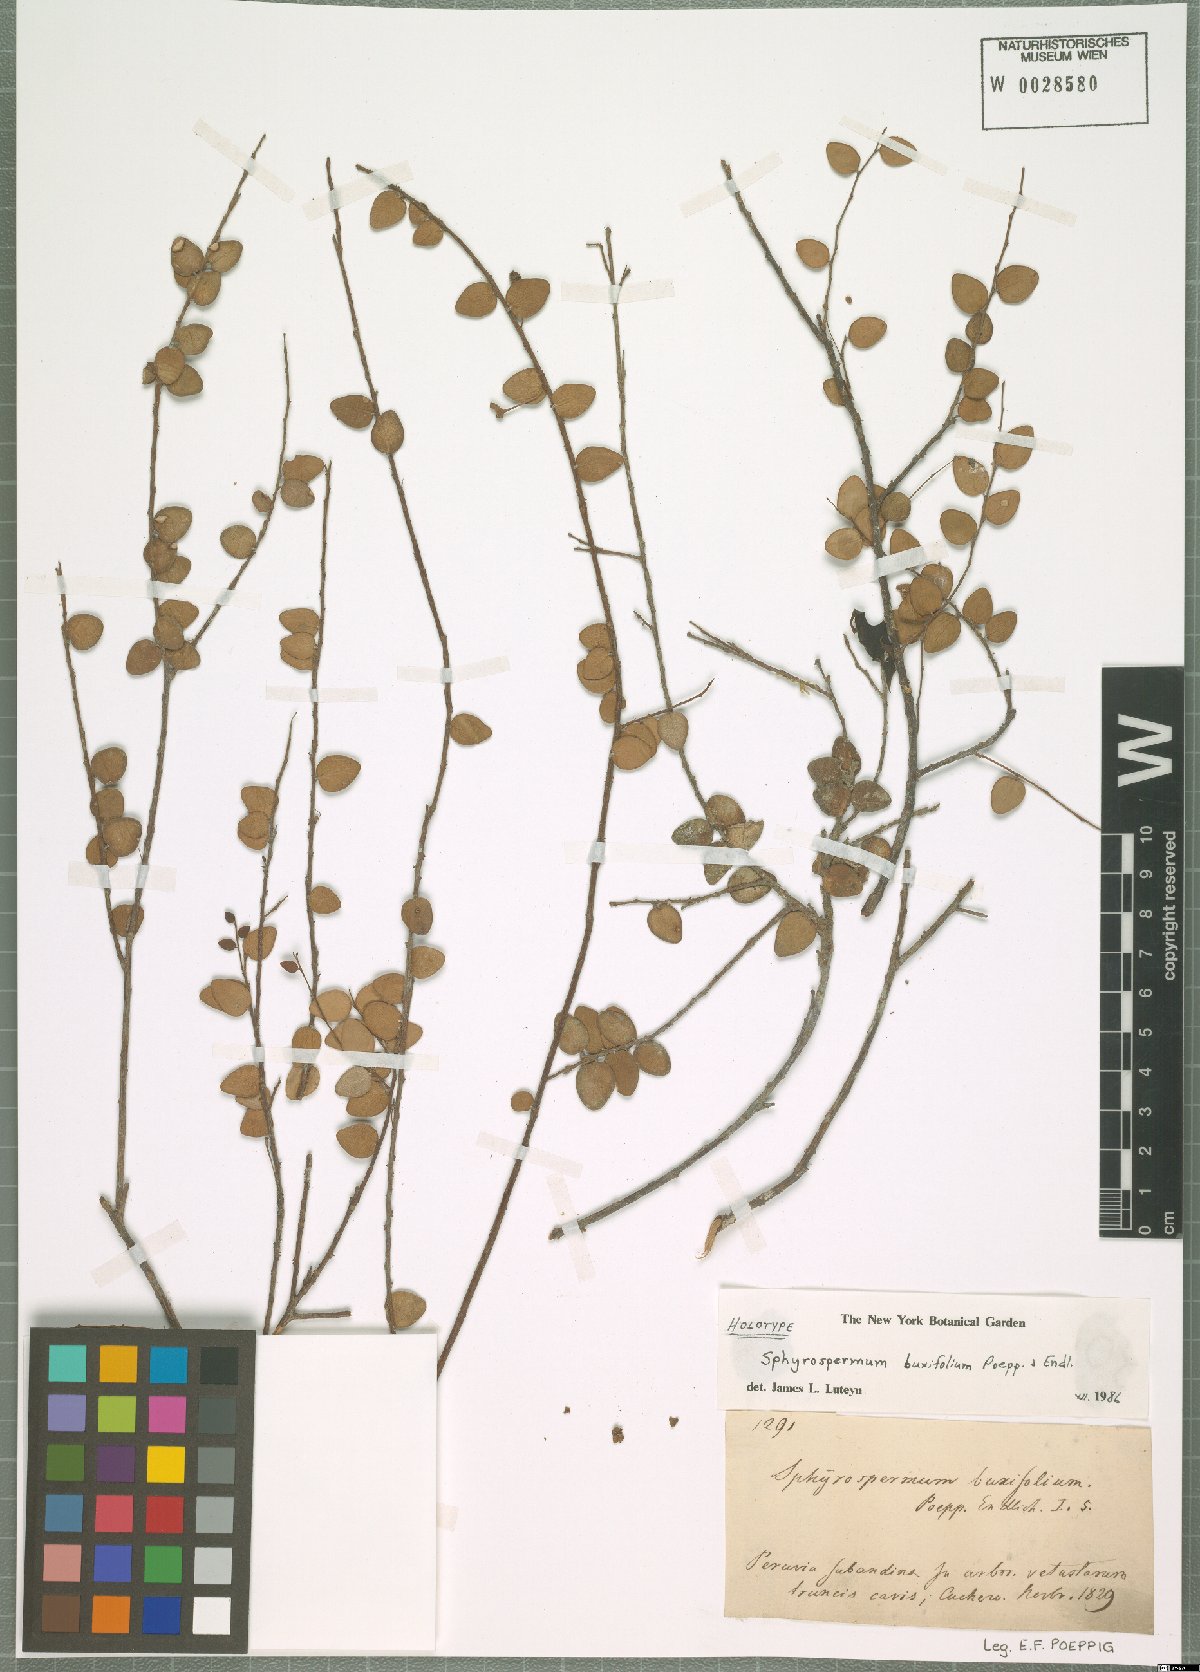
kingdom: Plantae
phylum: Tracheophyta
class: Magnoliopsida
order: Ericales
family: Ericaceae
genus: Sphyrospermum
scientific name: Sphyrospermum buxifolium
